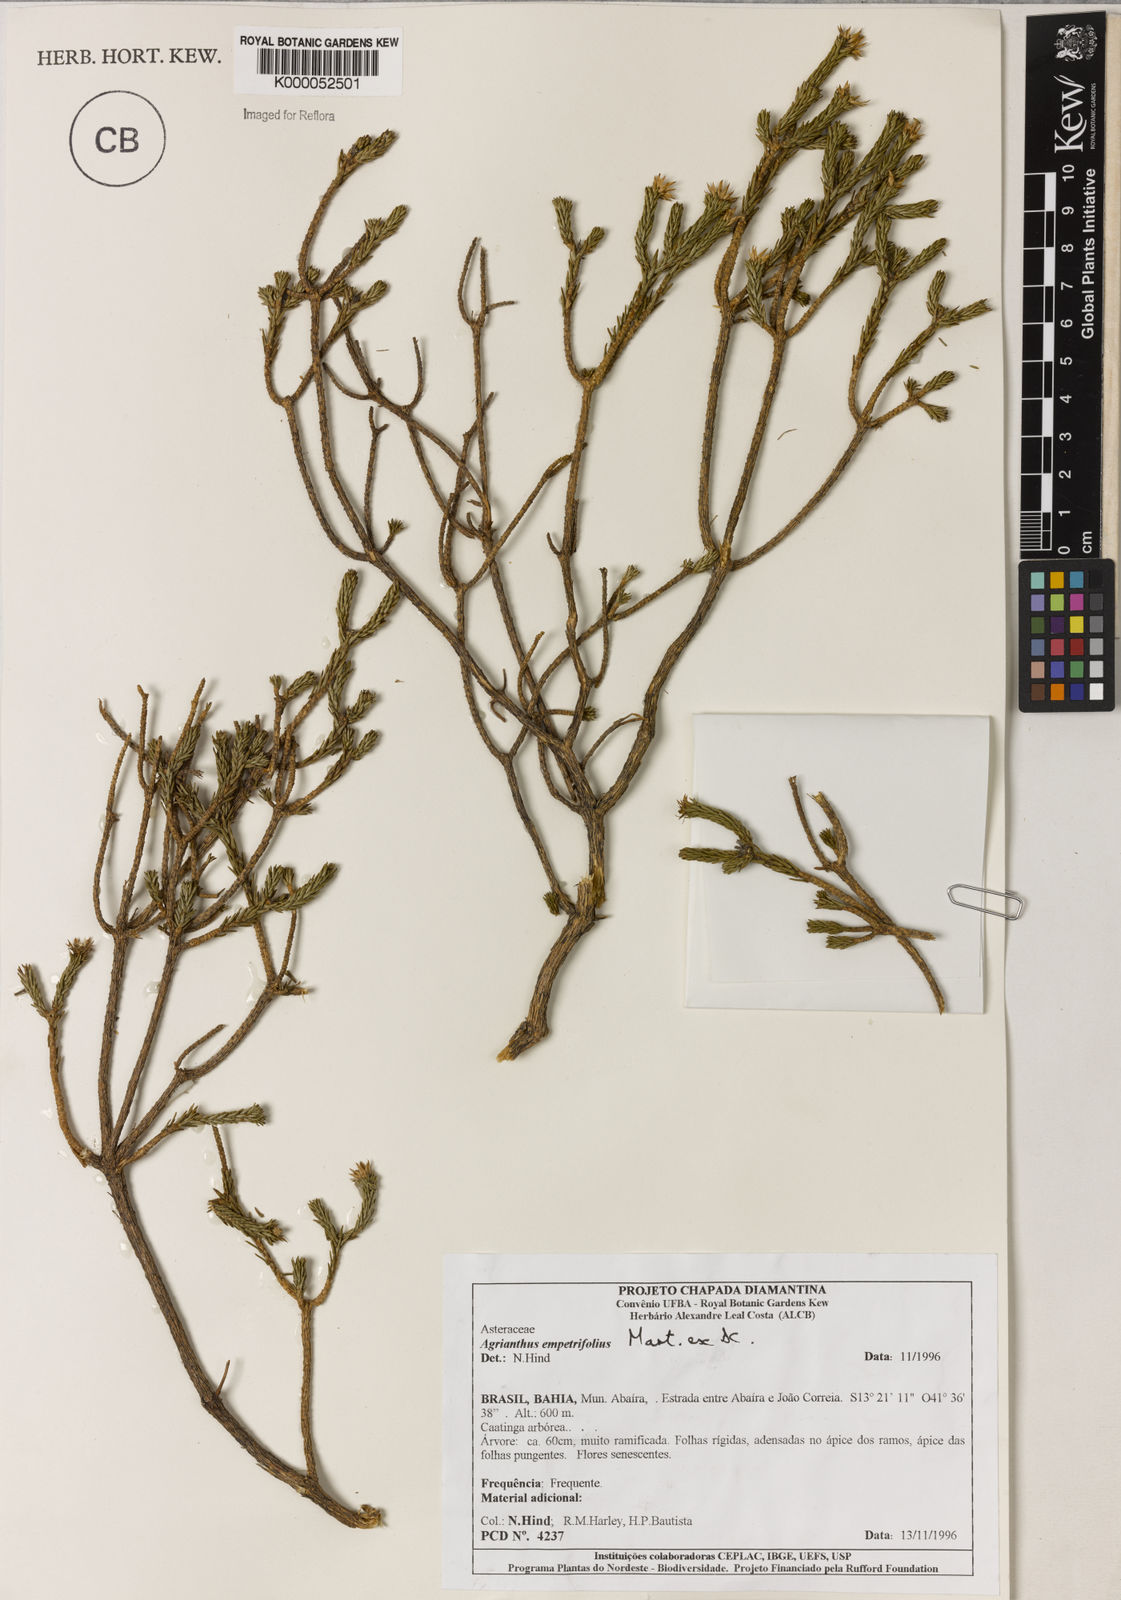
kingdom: Plantae
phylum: Tracheophyta
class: Magnoliopsida
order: Asterales
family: Asteraceae
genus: Agrianthus
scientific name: Agrianthus
